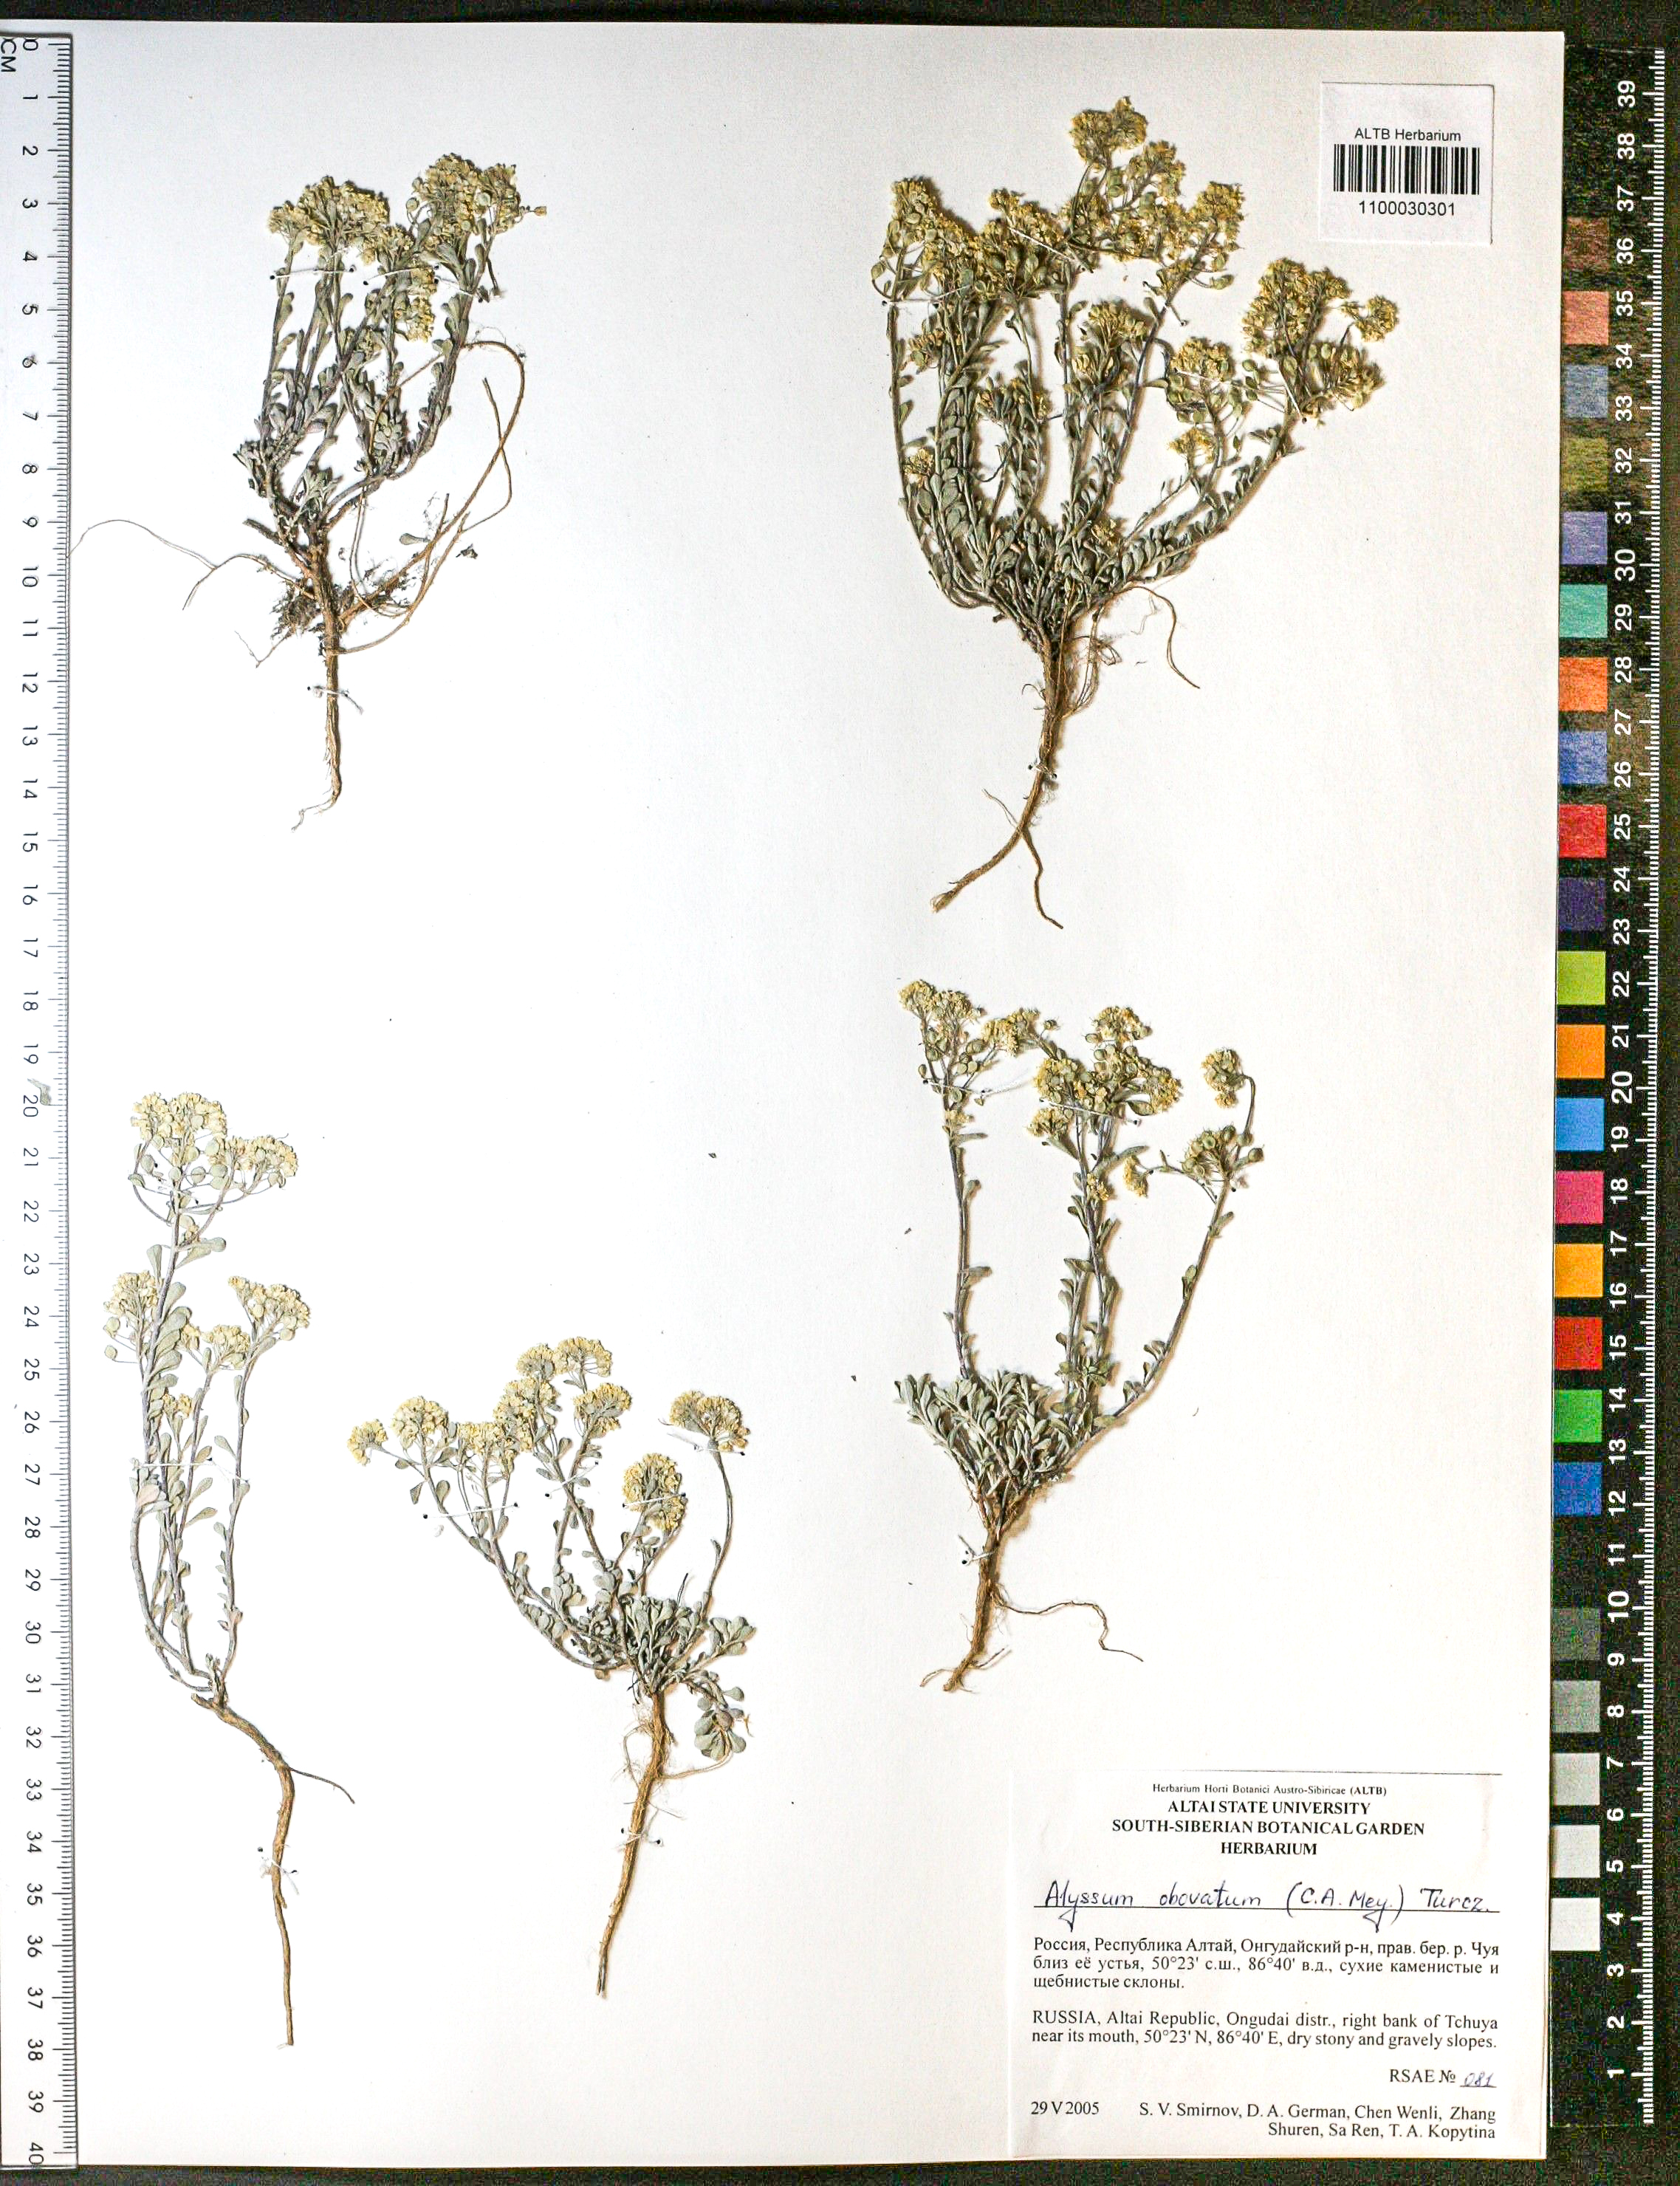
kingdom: Plantae
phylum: Tracheophyta
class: Magnoliopsida
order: Brassicales
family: Brassicaceae
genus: Odontarrhena
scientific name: Odontarrhena obovata
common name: American alyssum
